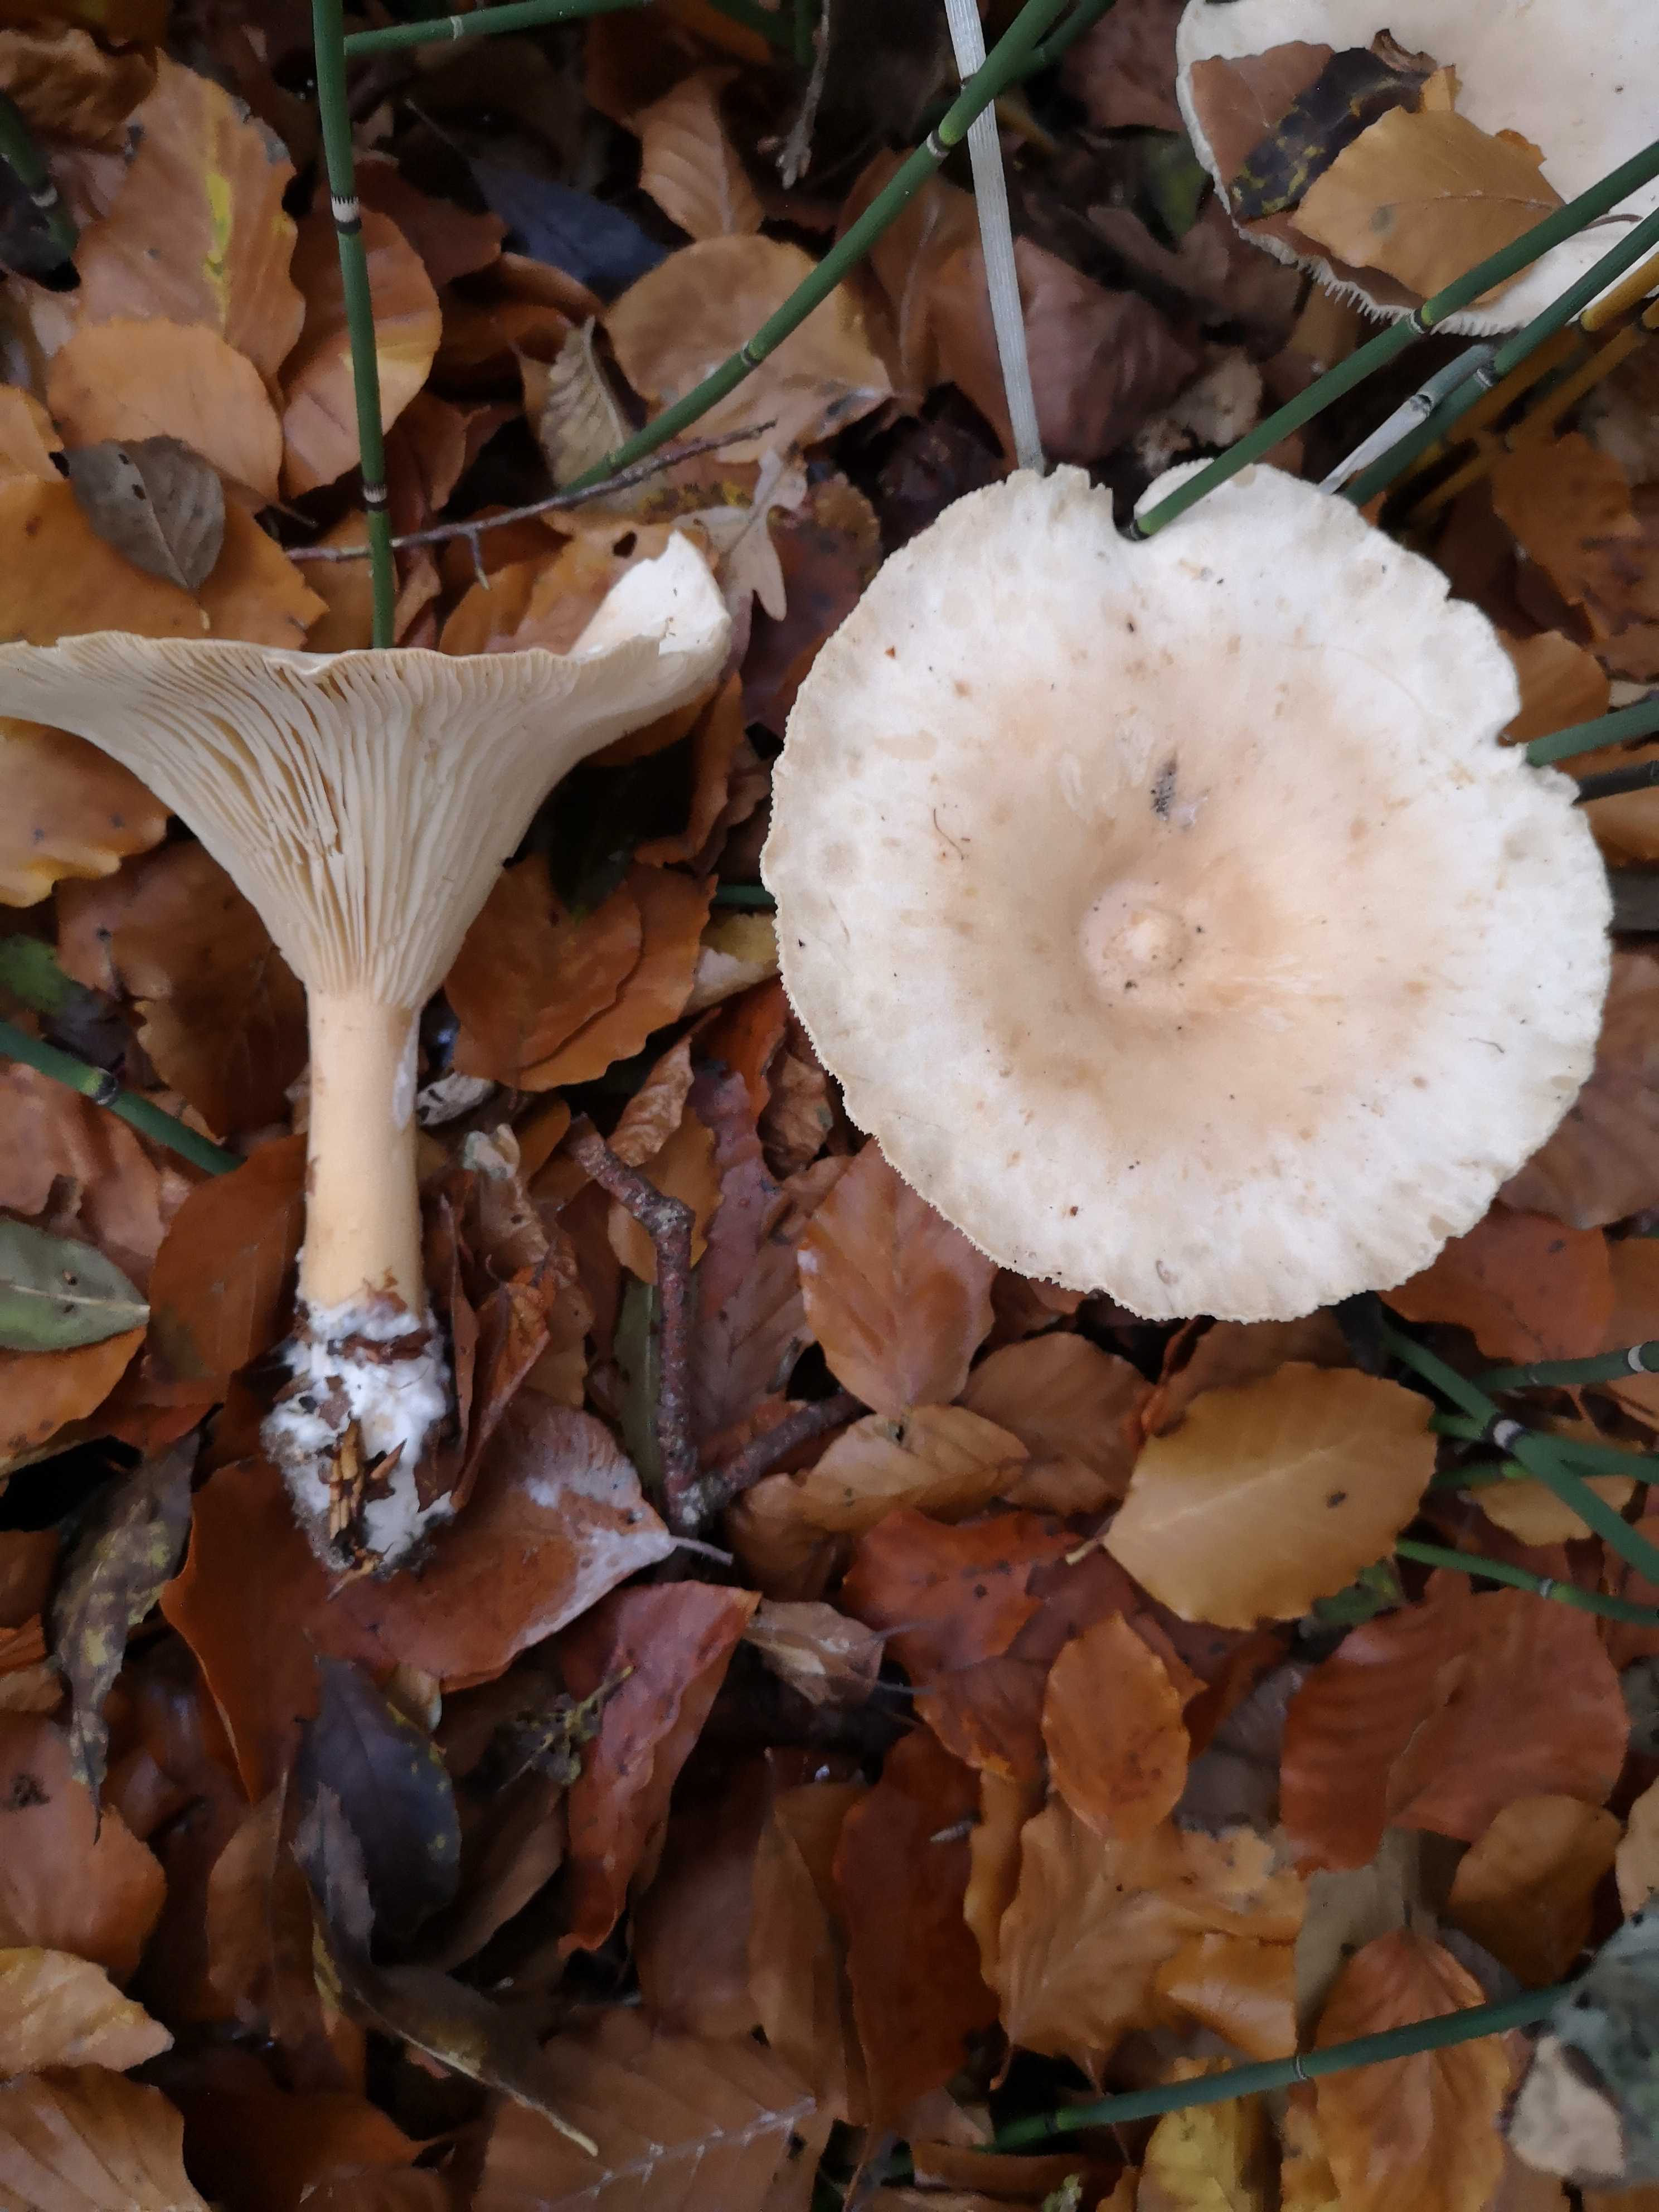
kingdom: Fungi
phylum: Basidiomycota
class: Agaricomycetes
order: Agaricales
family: Tricholomataceae
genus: Infundibulicybe
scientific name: Infundibulicybe geotropa
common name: stor tragthat
